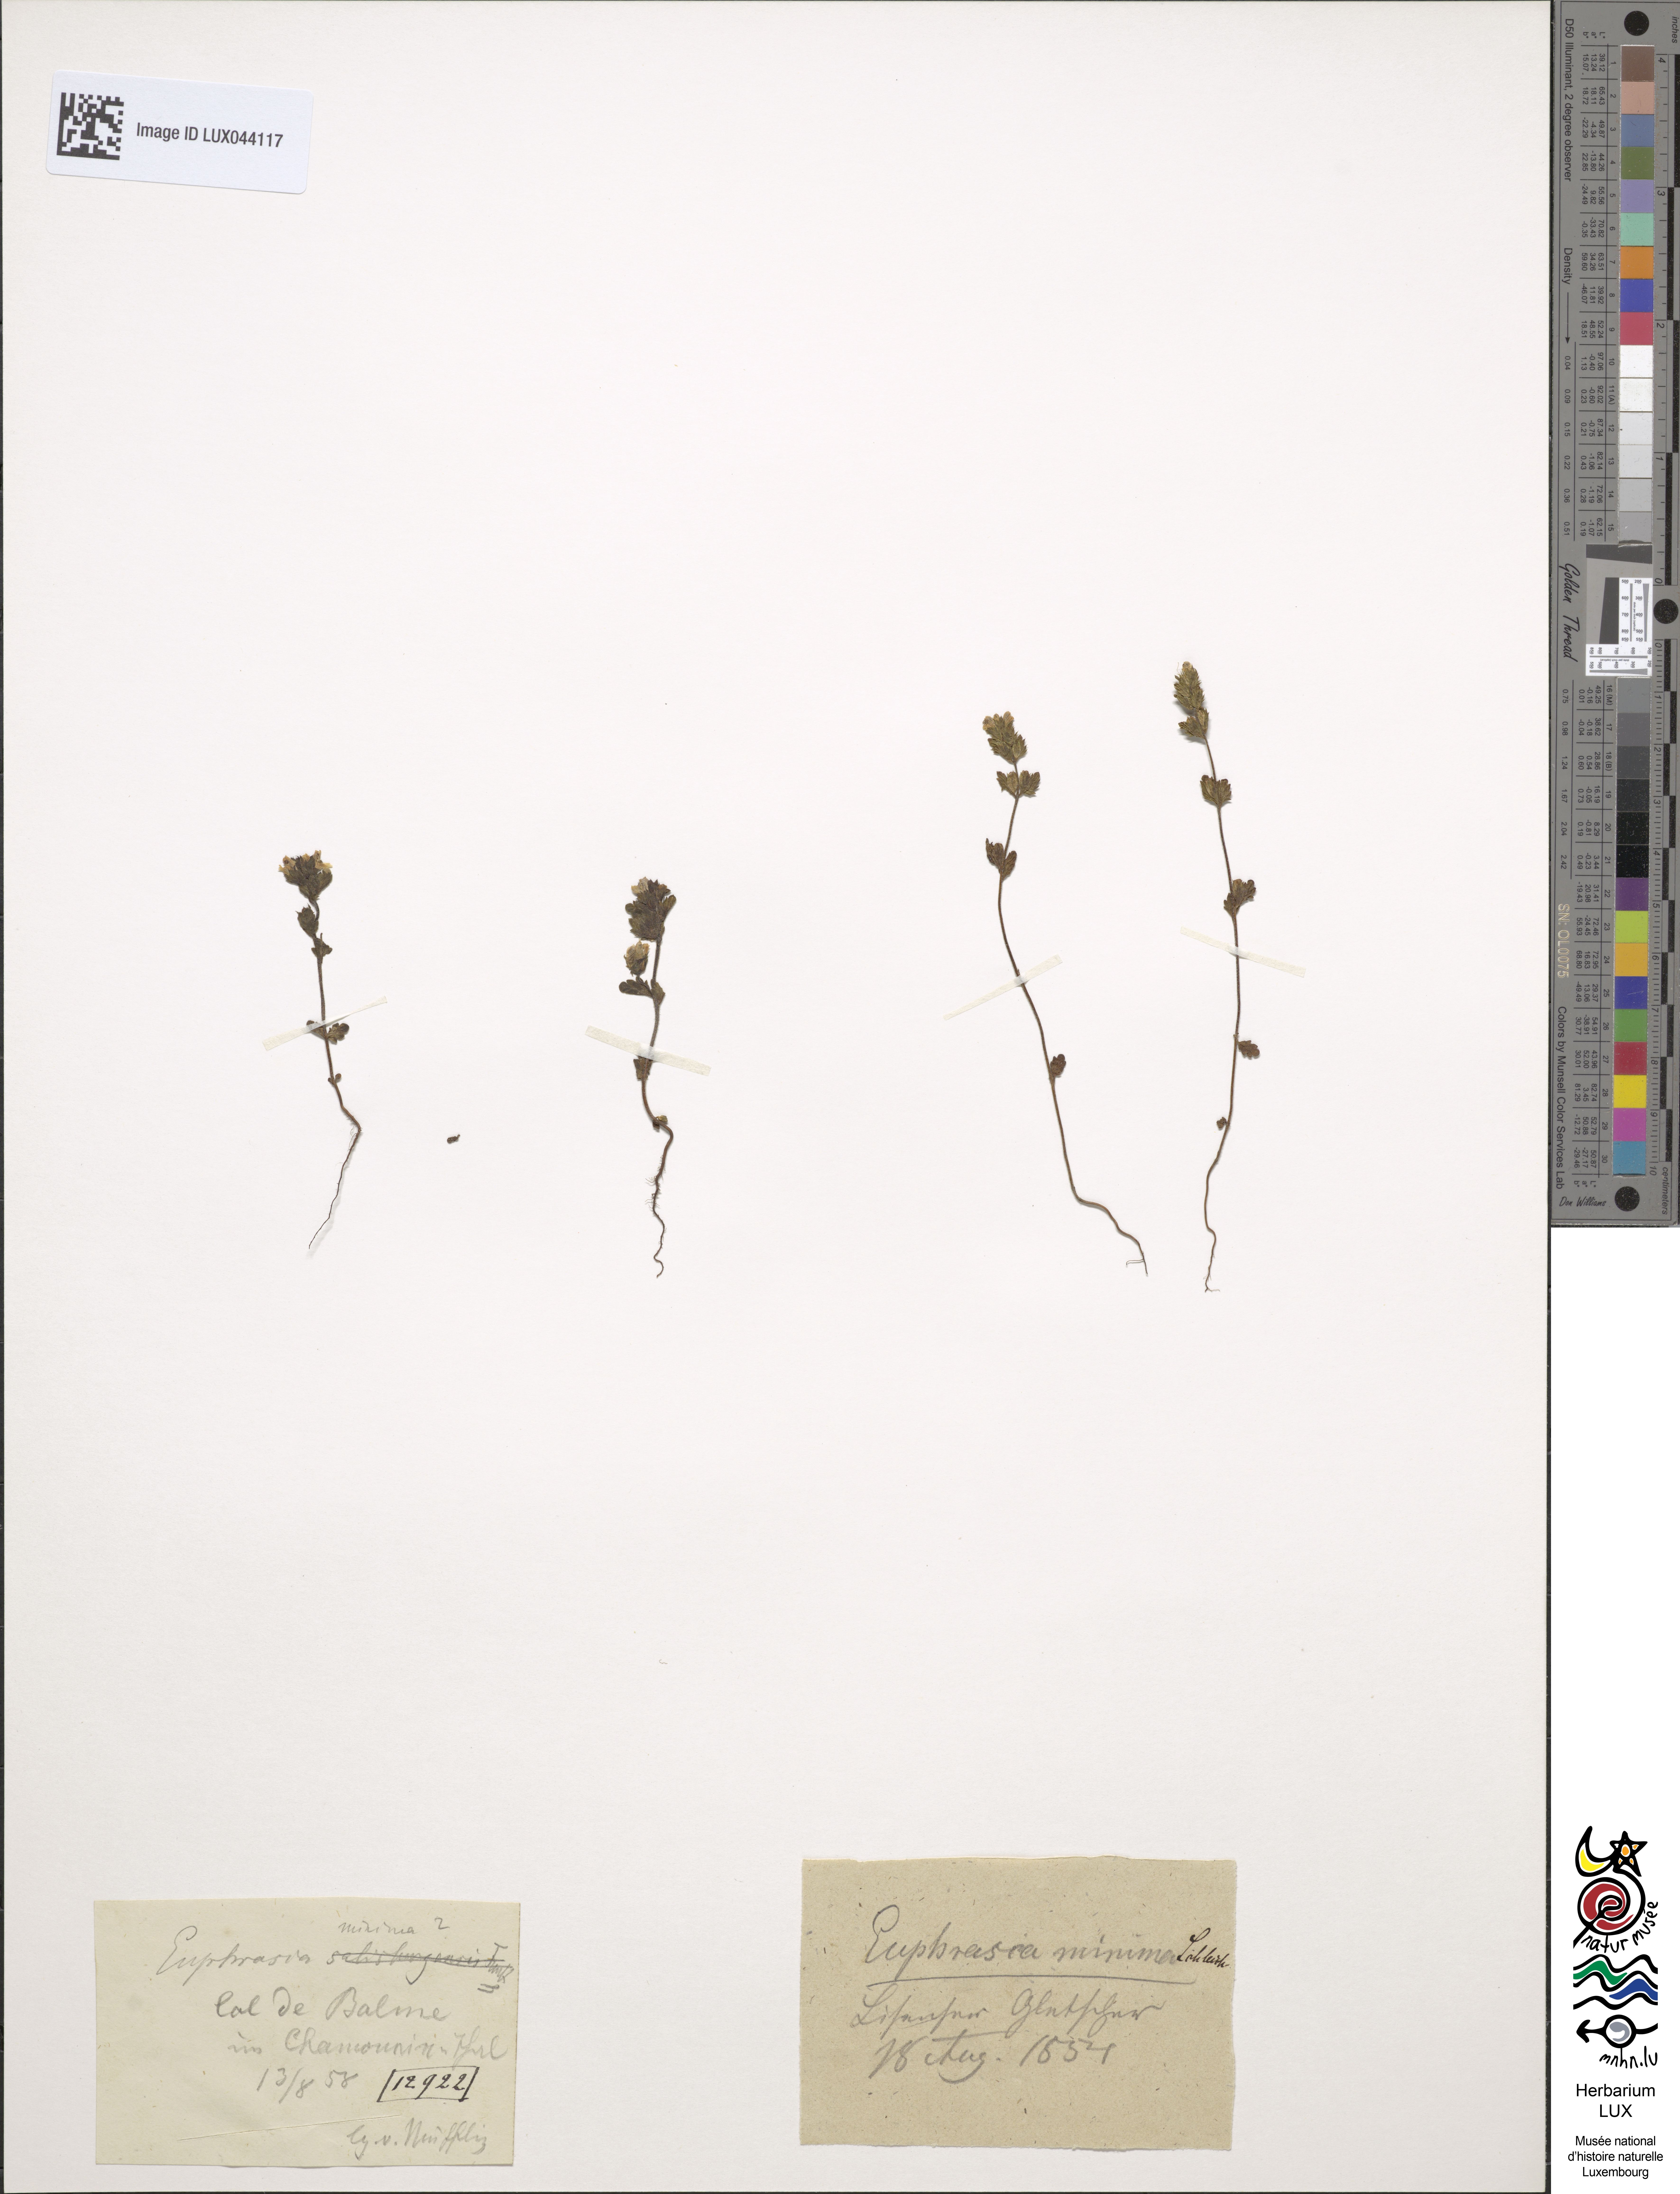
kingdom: Plantae
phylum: Tracheophyta
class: Magnoliopsida
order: Lamiales
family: Orobanchaceae
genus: Euphrasia
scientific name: Euphrasia minima
